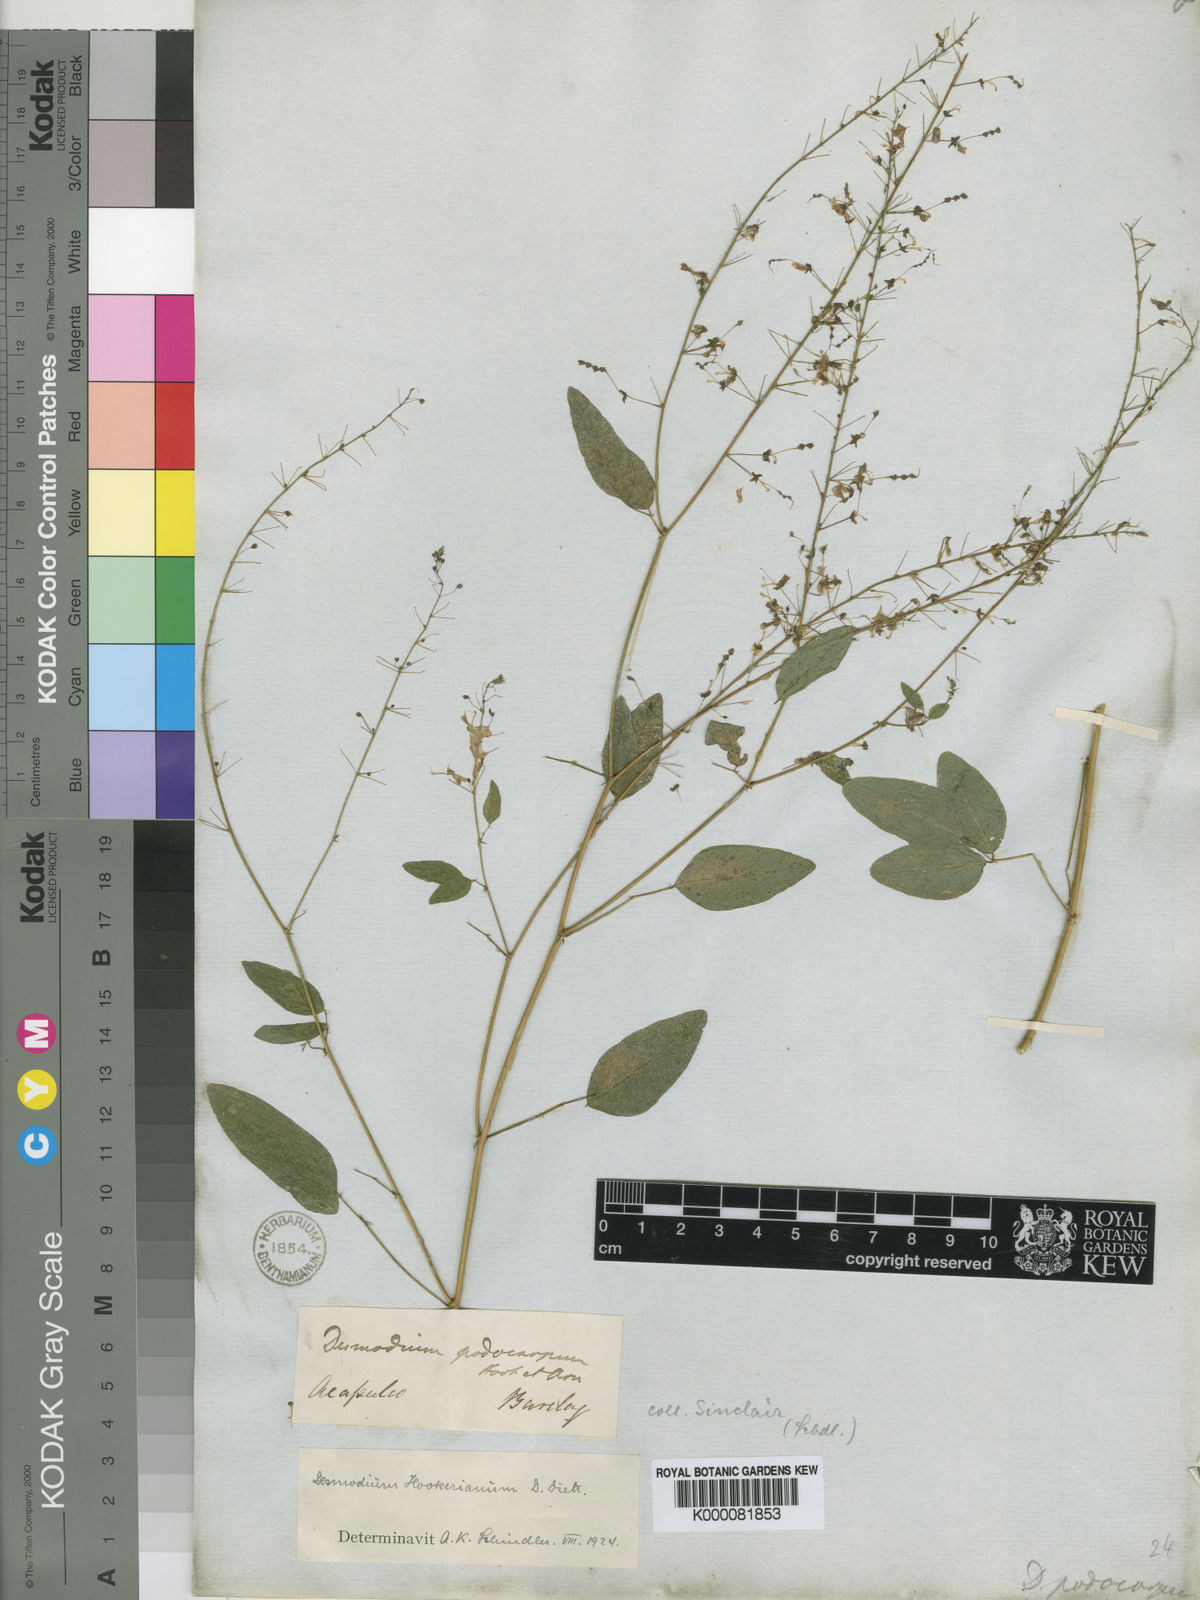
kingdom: Plantae
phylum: Tracheophyta
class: Magnoliopsida
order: Fabales
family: Fabaceae
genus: Desmodium
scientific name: Desmodium hookerianum
